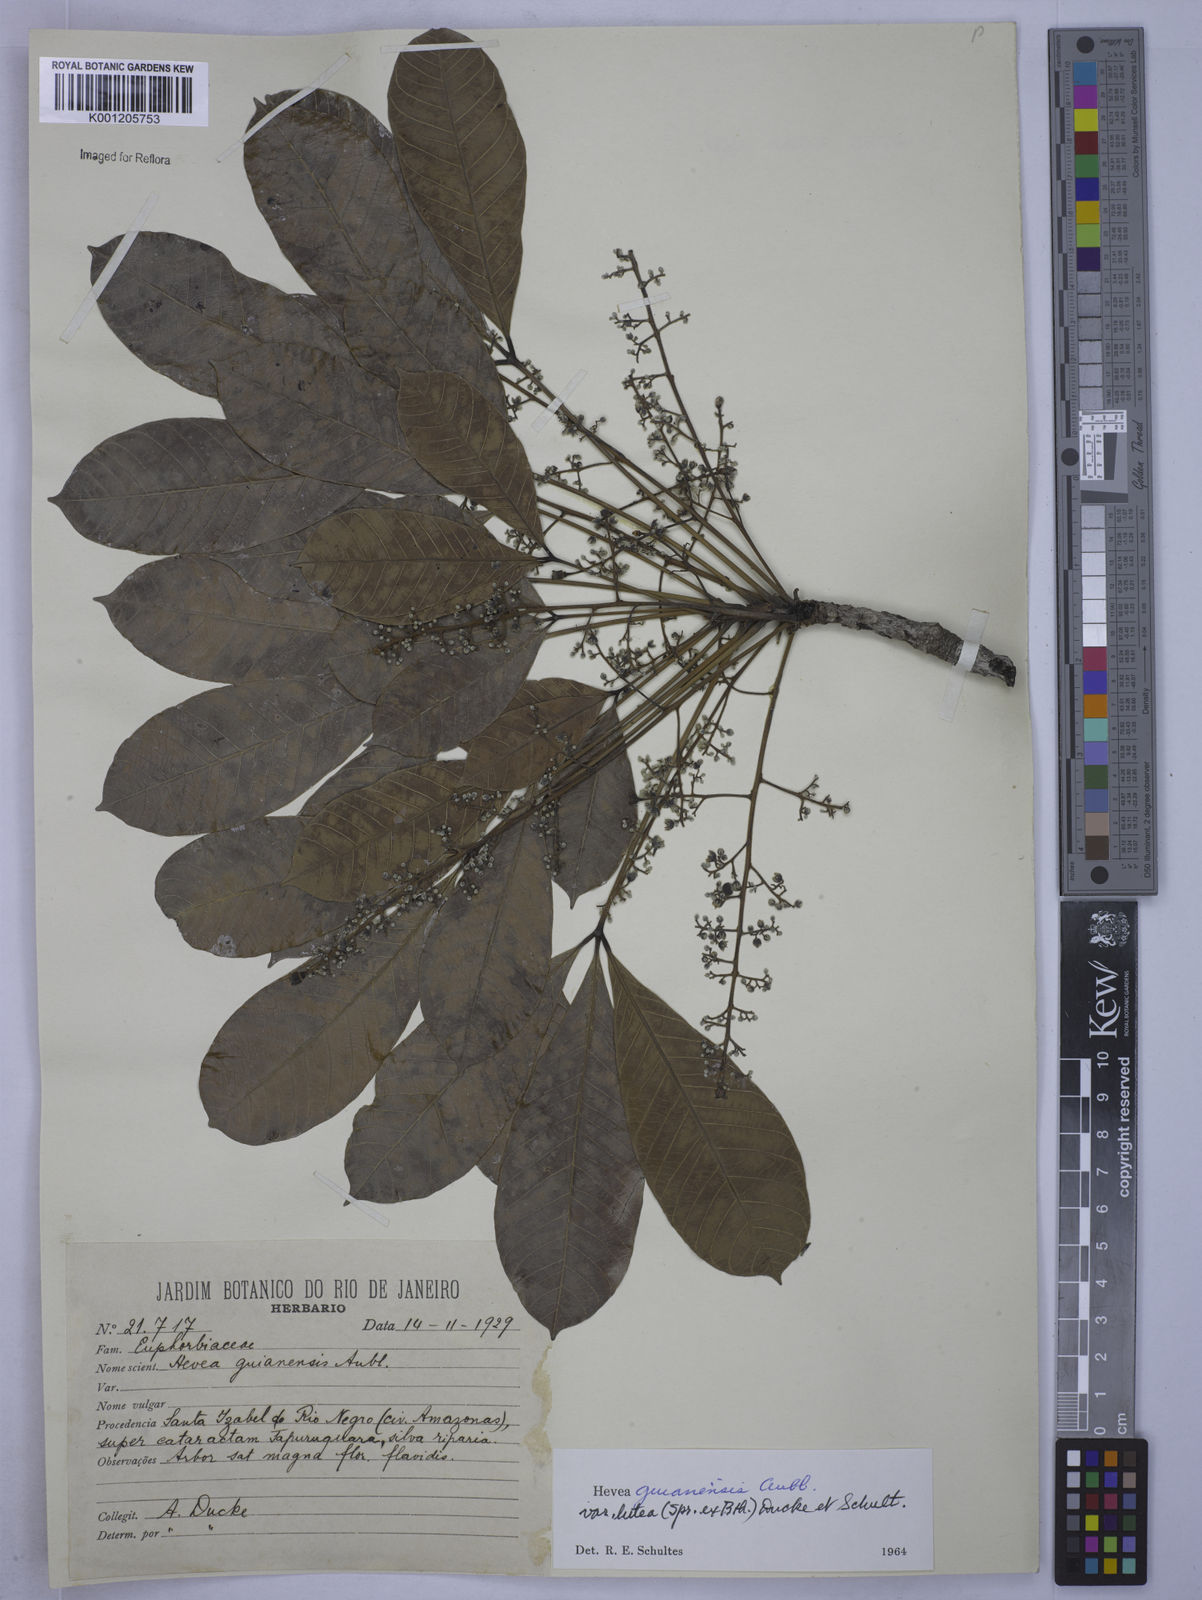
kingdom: Plantae
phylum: Tracheophyta
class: Magnoliopsida
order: Malpighiales
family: Euphorbiaceae
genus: Hevea
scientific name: Hevea guianensis
